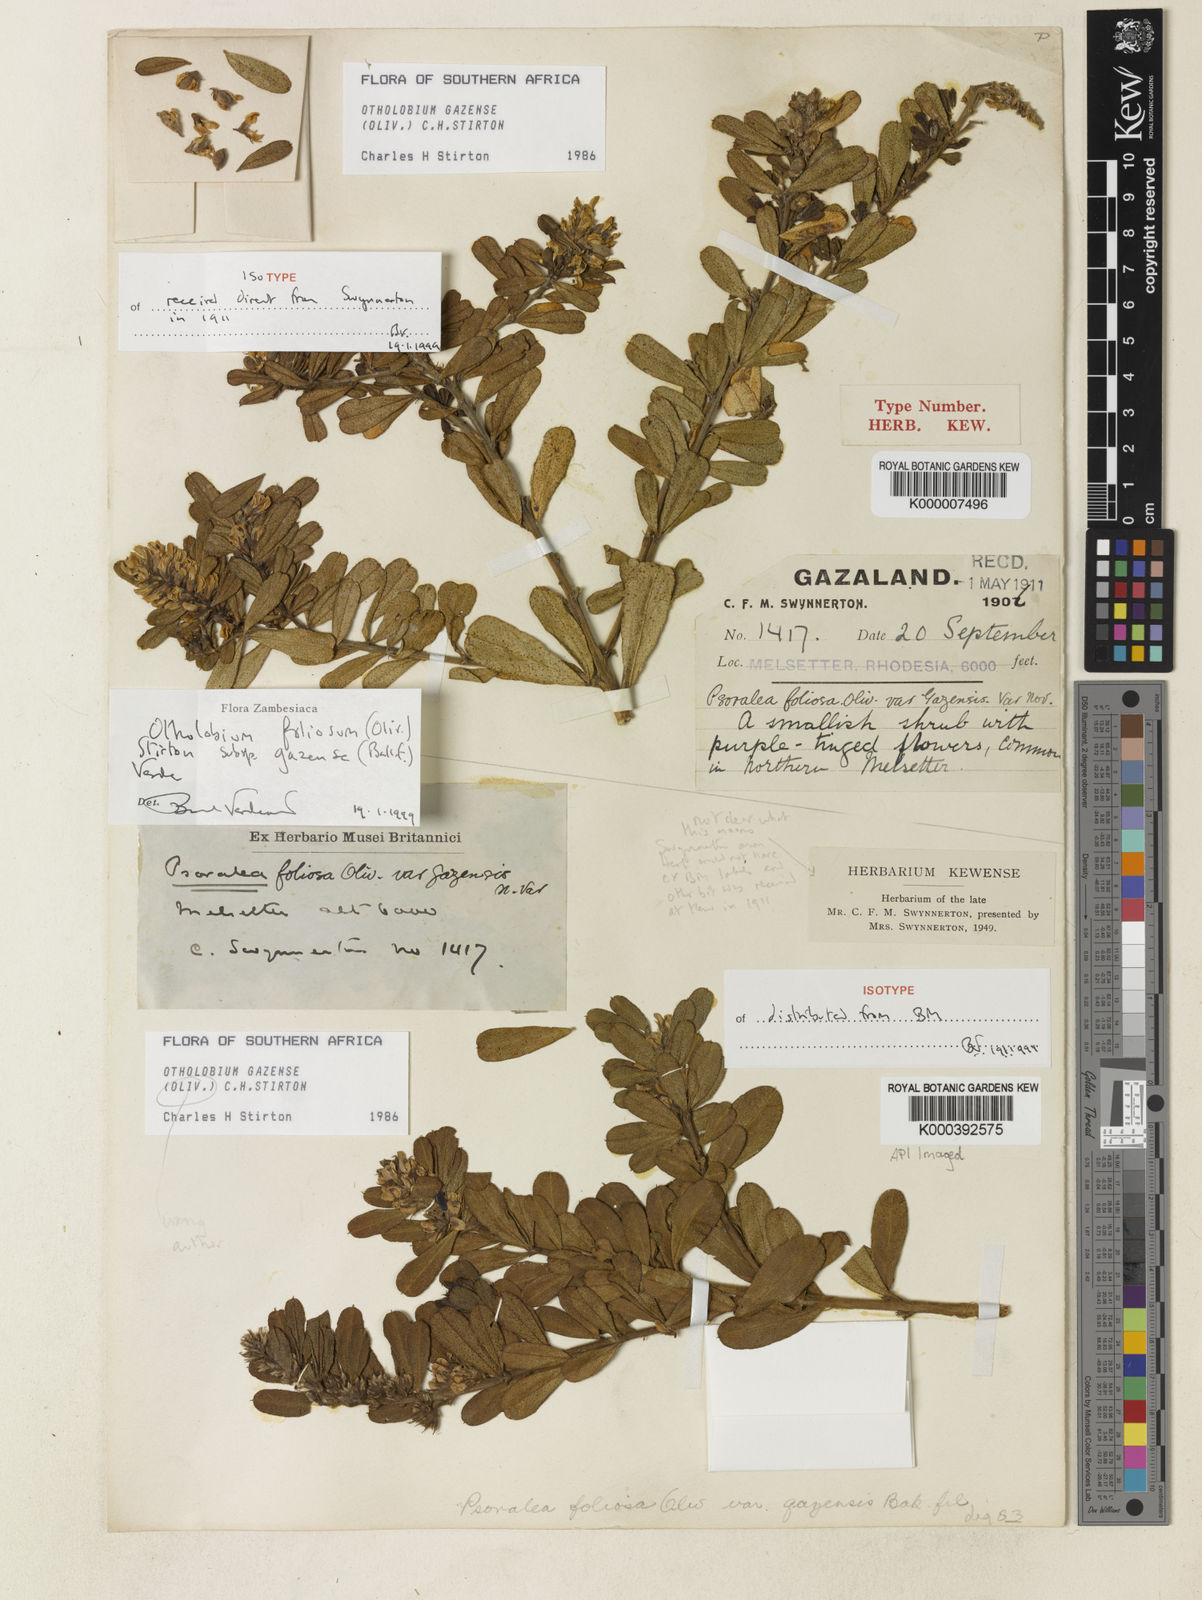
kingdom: Plantae
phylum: Tracheophyta
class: Magnoliopsida
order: Fabales
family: Fabaceae
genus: Otholobium
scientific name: Otholobium
